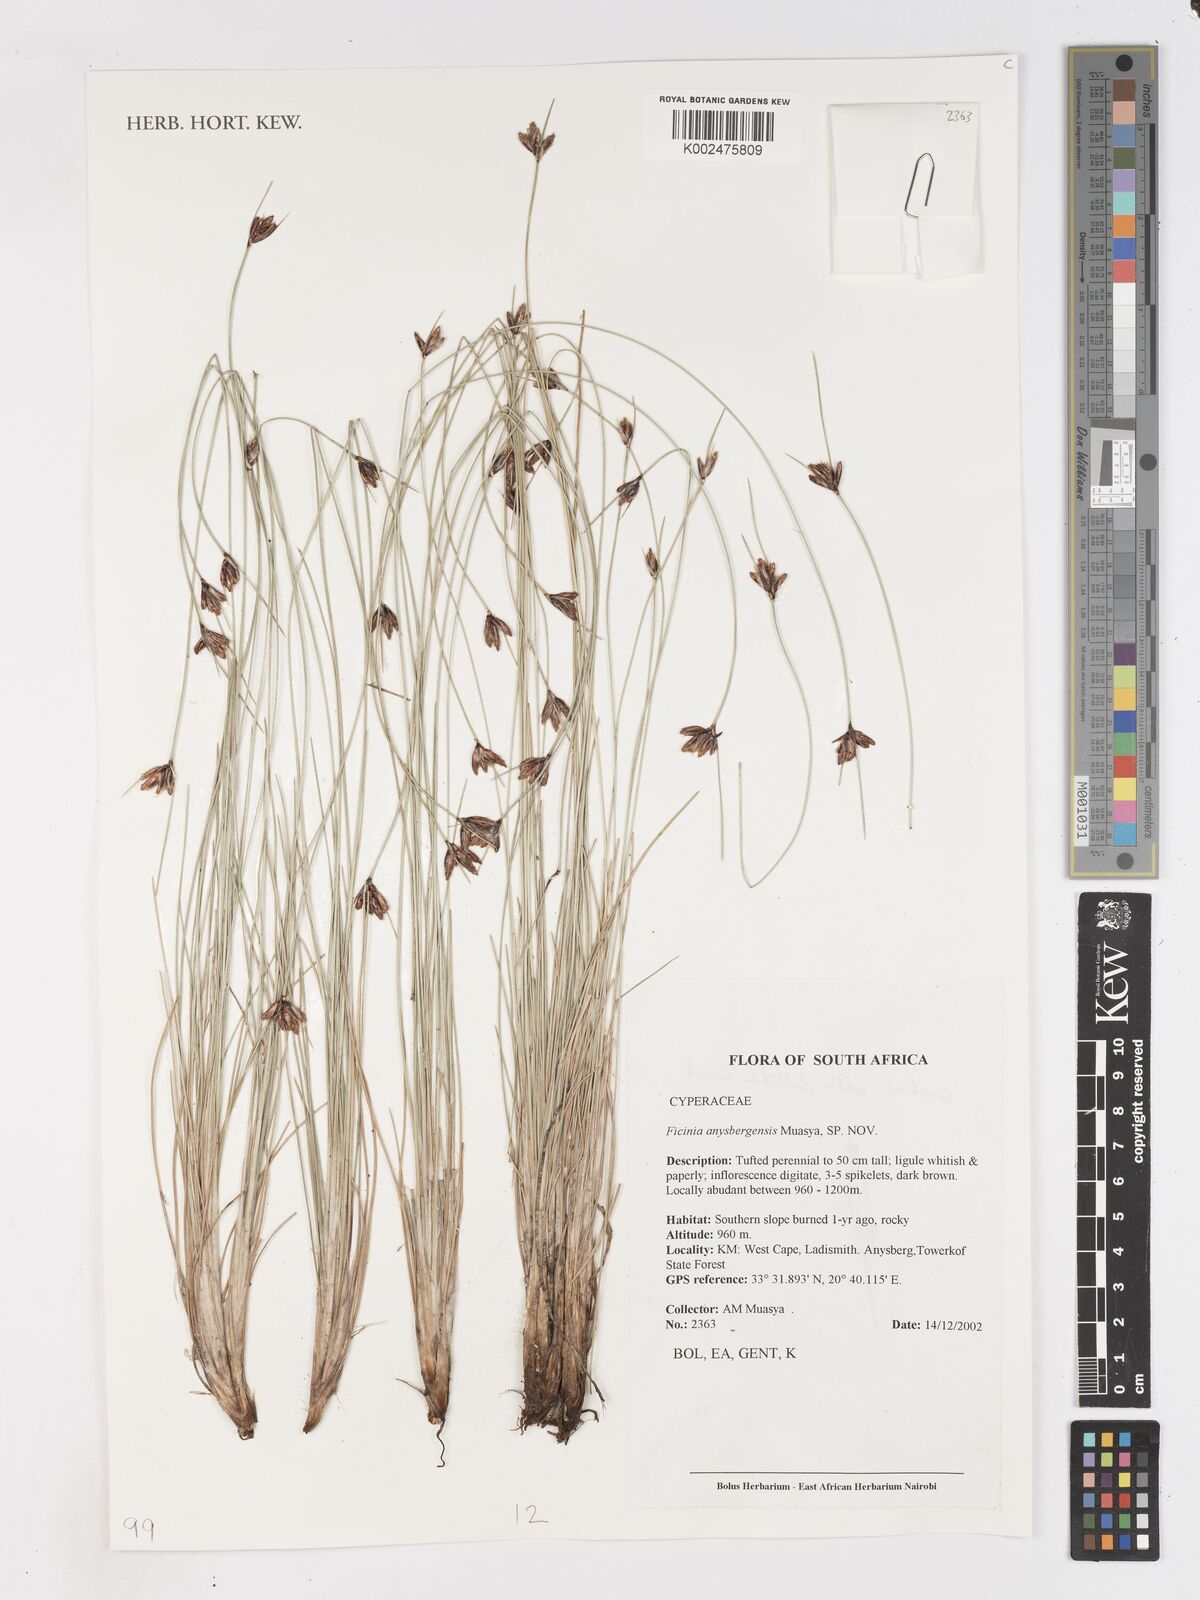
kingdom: Plantae
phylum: Tracheophyta
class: Liliopsida
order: Poales
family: Cyperaceae
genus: Ficinia
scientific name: Ficinia anysbergensis
